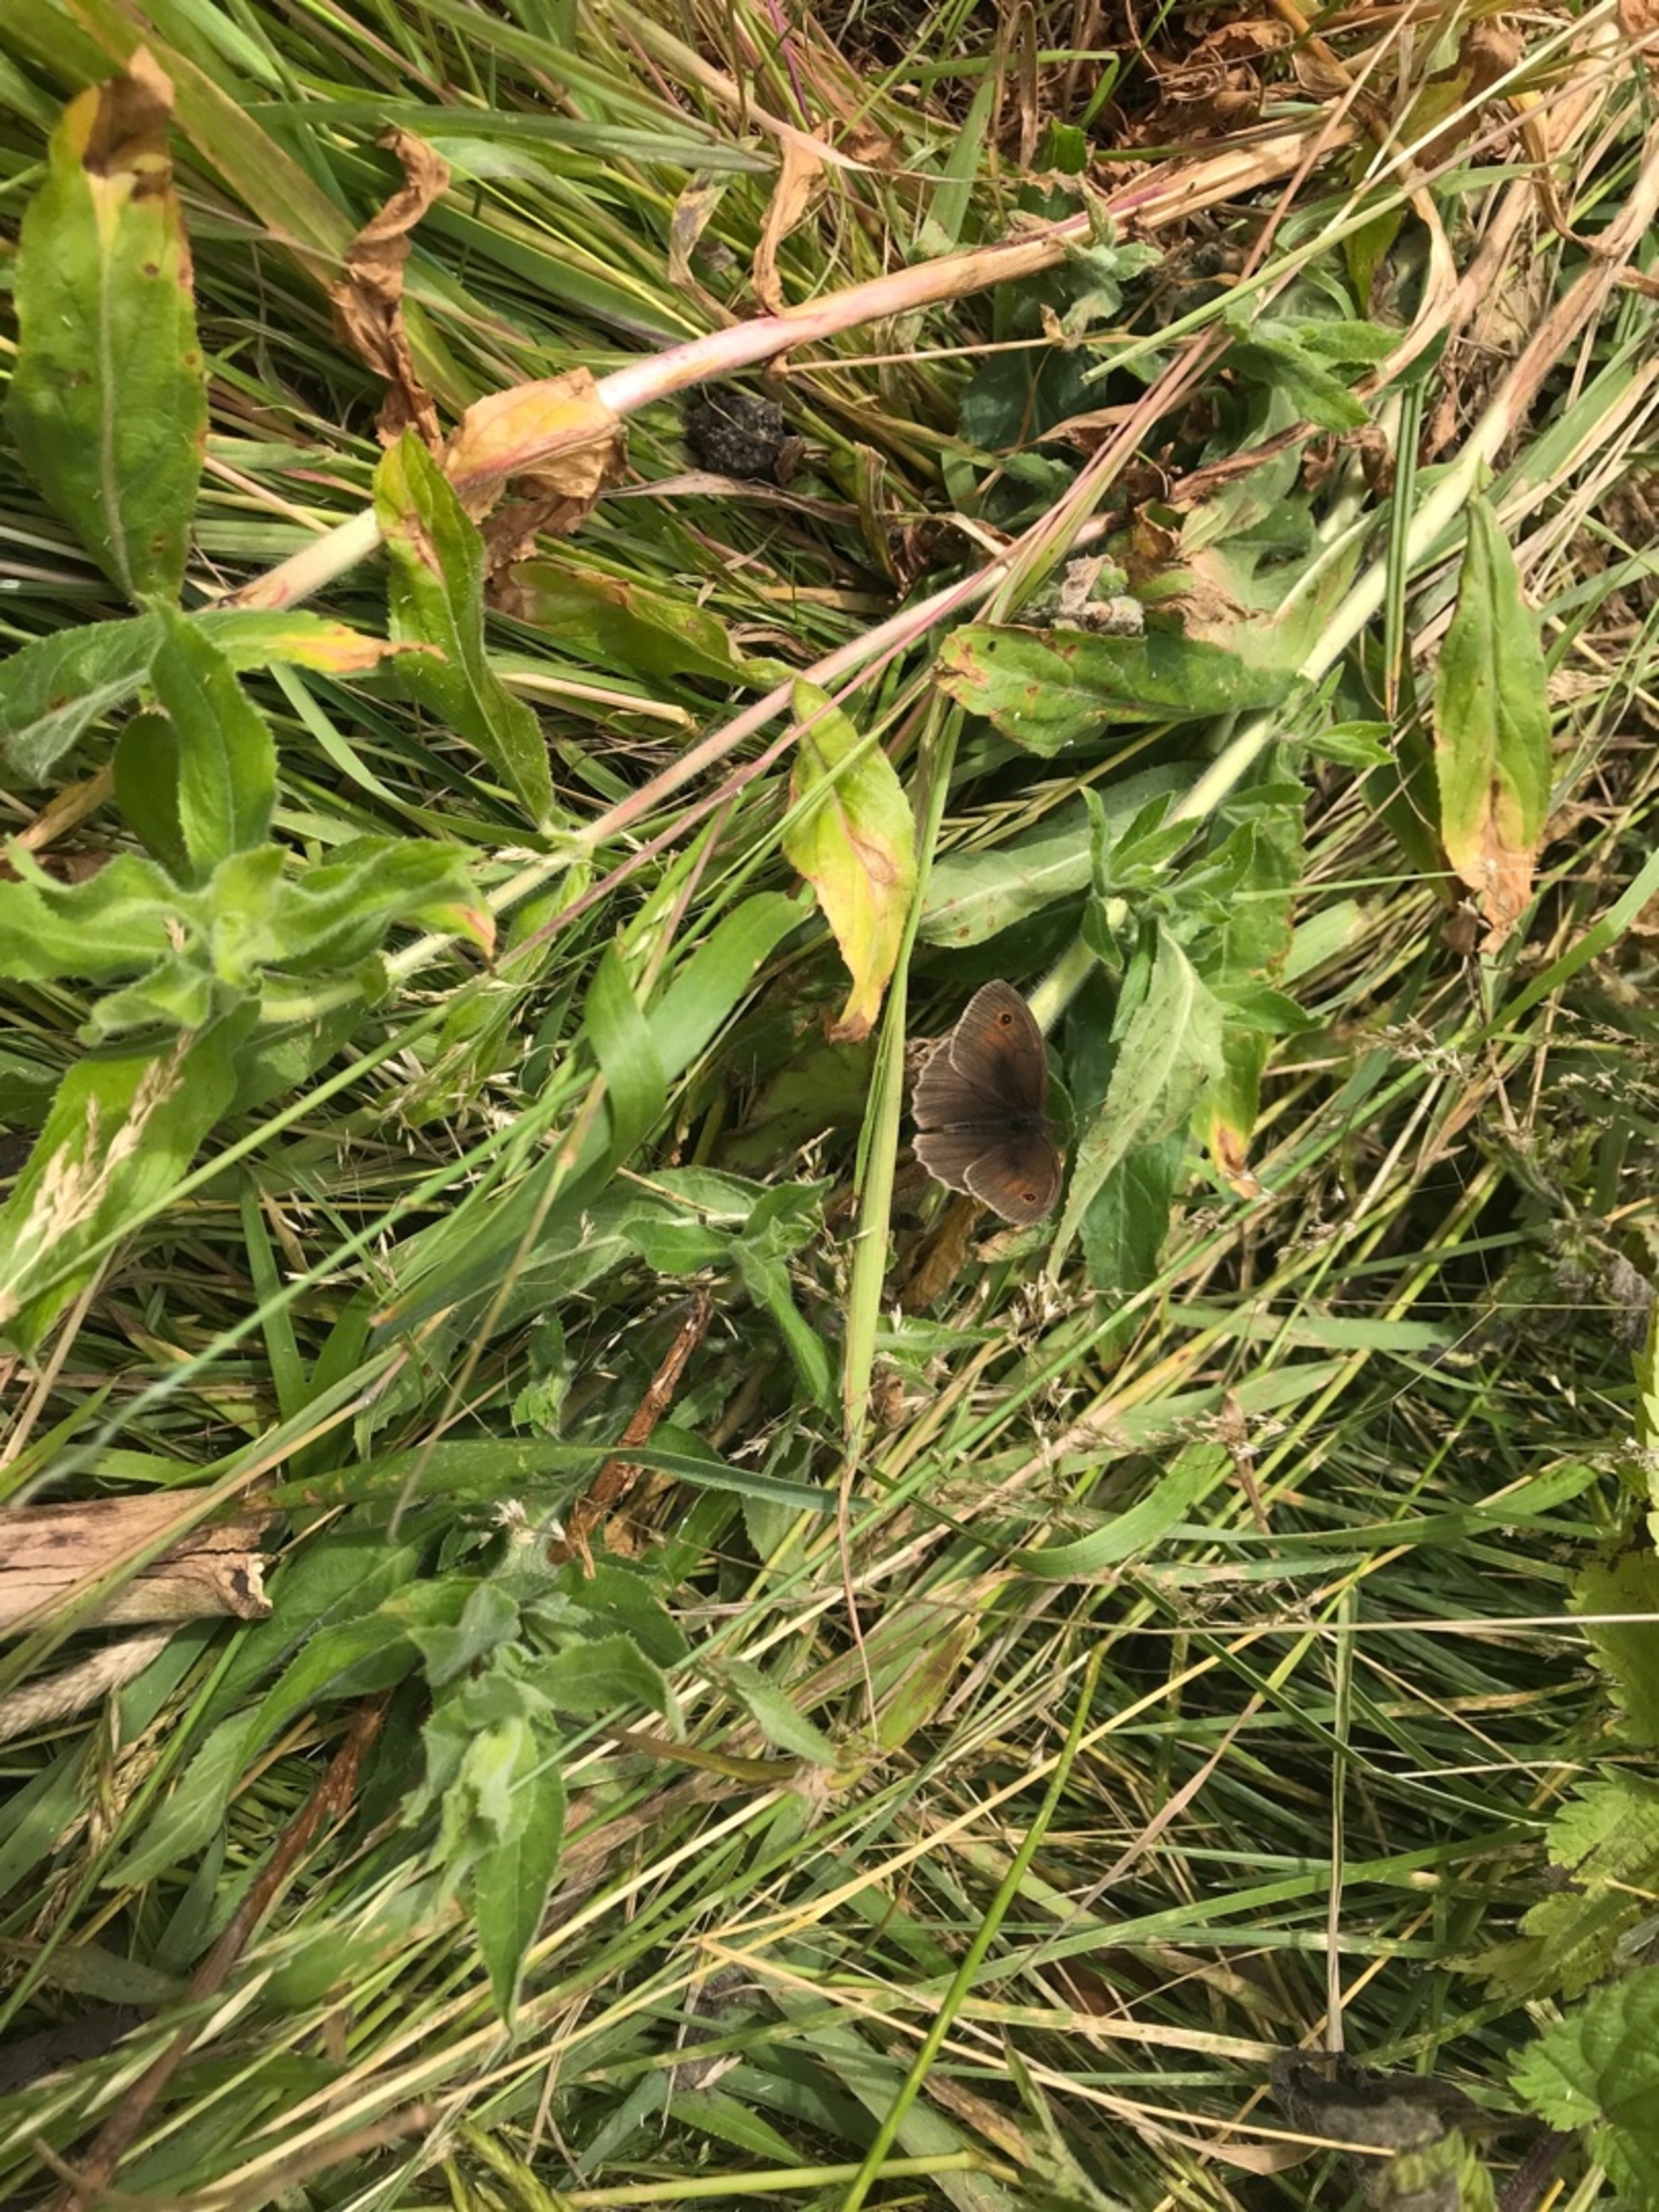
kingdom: Animalia
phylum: Arthropoda
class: Insecta
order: Lepidoptera
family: Nymphalidae
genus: Maniola
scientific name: Maniola jurtina
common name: Græsrandøje
